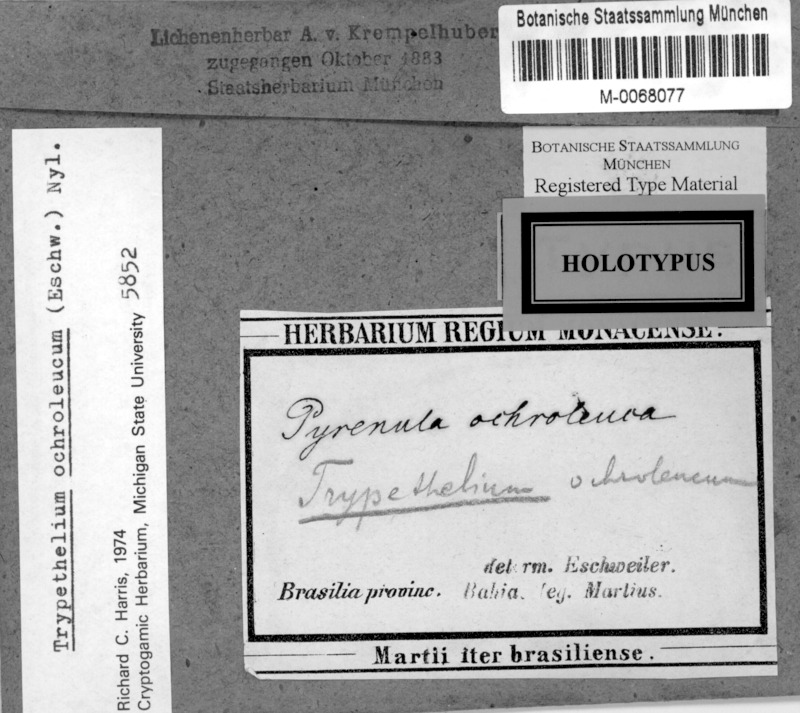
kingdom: Fungi
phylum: Ascomycota
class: Dothideomycetes
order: Trypetheliales
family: Trypetheliaceae
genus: Trypethelium
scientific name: Trypethelium ochroleucum
